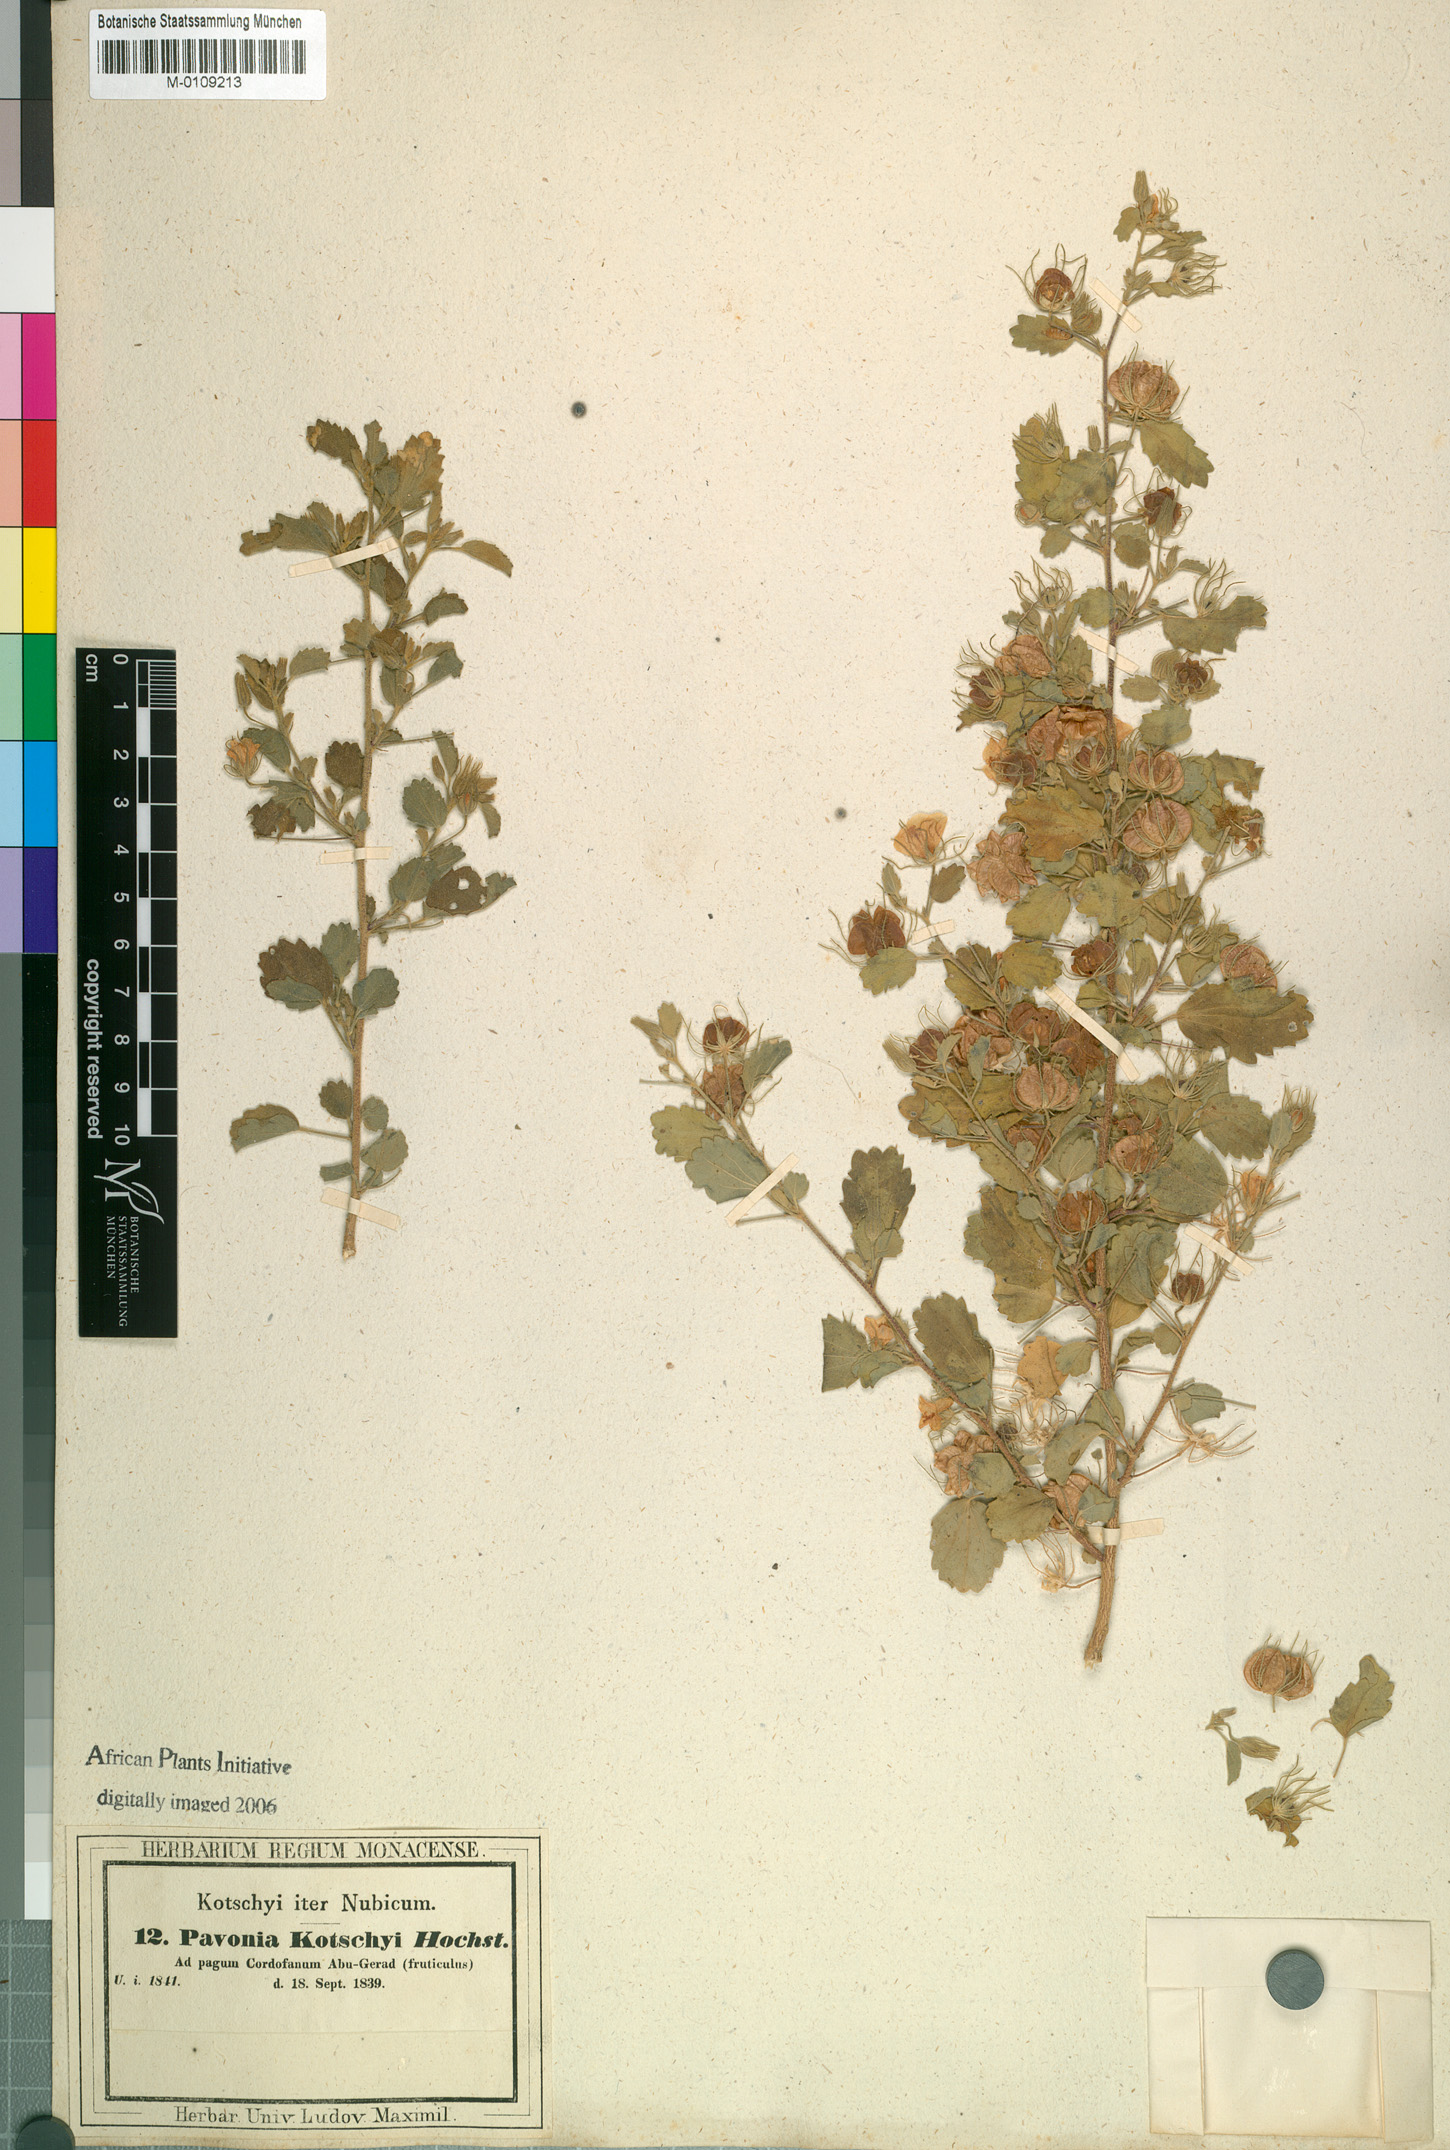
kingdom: Plantae
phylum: Tracheophyta
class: Magnoliopsida
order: Malvales
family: Malvaceae
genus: Pavonia
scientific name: Pavonia kotschyi
